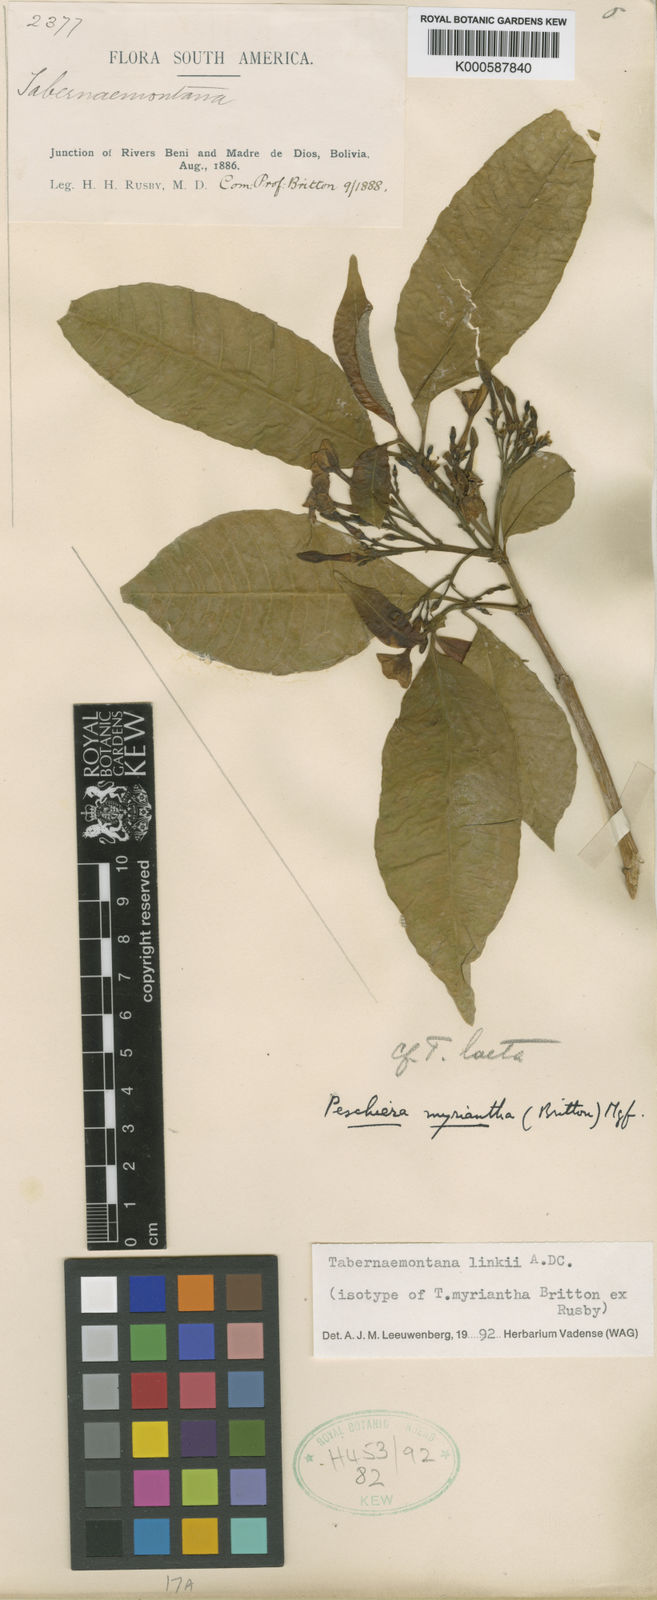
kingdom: Plantae
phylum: Tracheophyta
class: Magnoliopsida
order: Gentianales
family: Apocynaceae
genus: Tabernaemontana
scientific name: Tabernaemontana linkii
